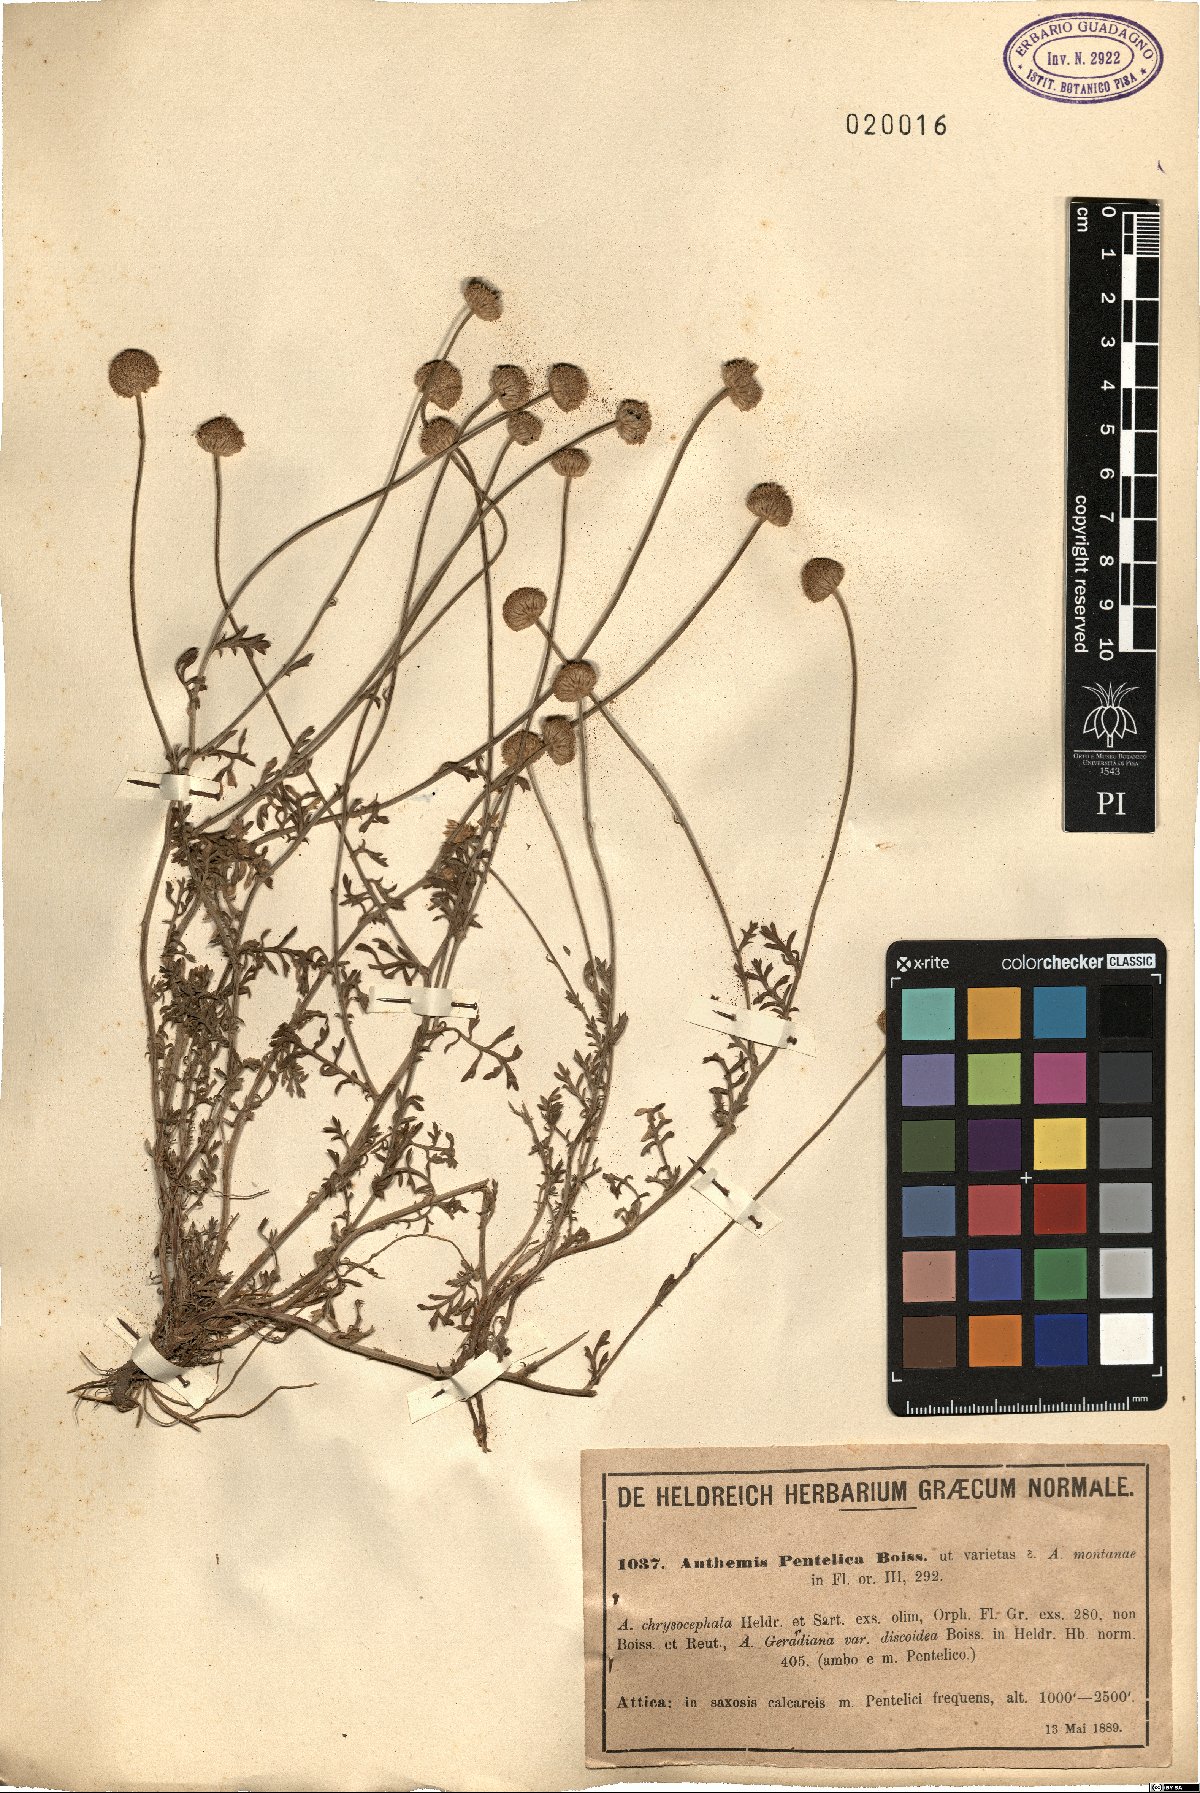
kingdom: Plantae
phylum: Tracheophyta
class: Magnoliopsida
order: Asterales
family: Asteraceae
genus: Anthemis
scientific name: Anthemis cretica
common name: Mountain dog-daisy
